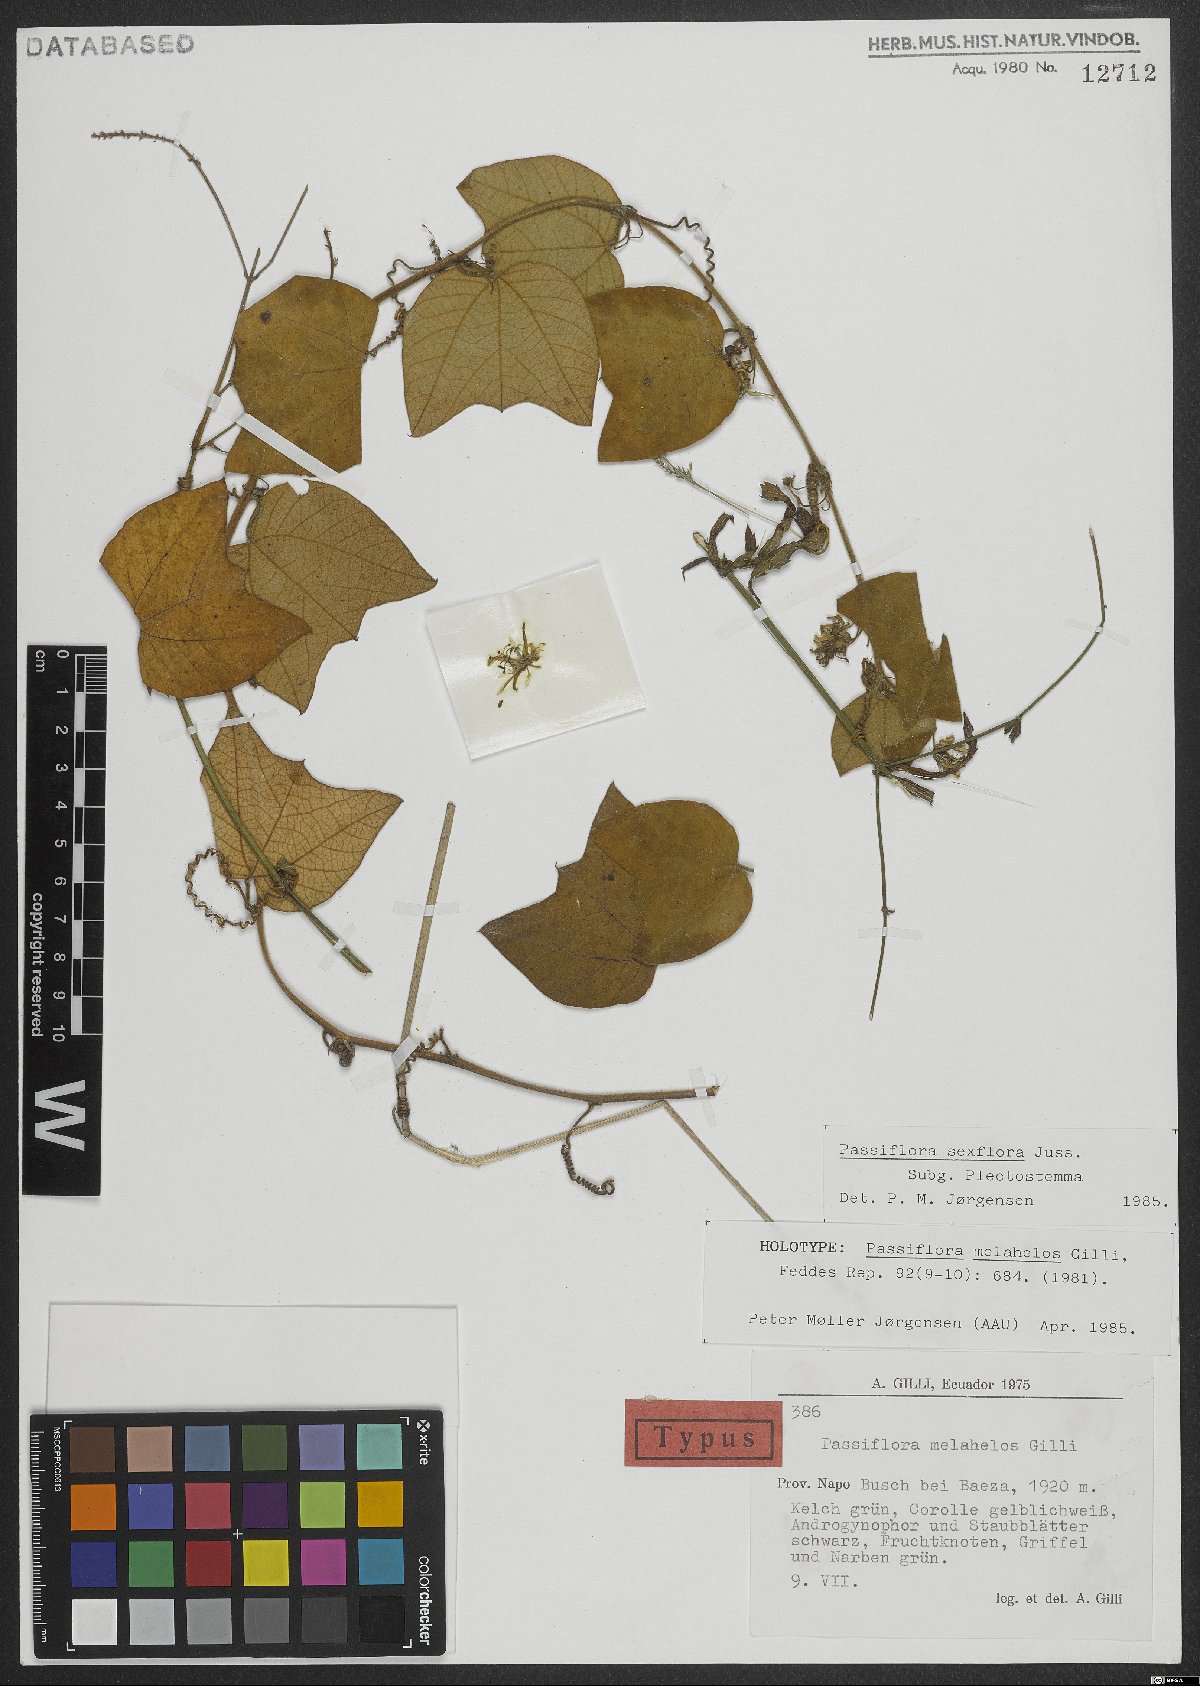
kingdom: Plantae
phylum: Tracheophyta
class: Magnoliopsida
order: Malpighiales
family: Passifloraceae
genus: Passiflora
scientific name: Passiflora sexflora
